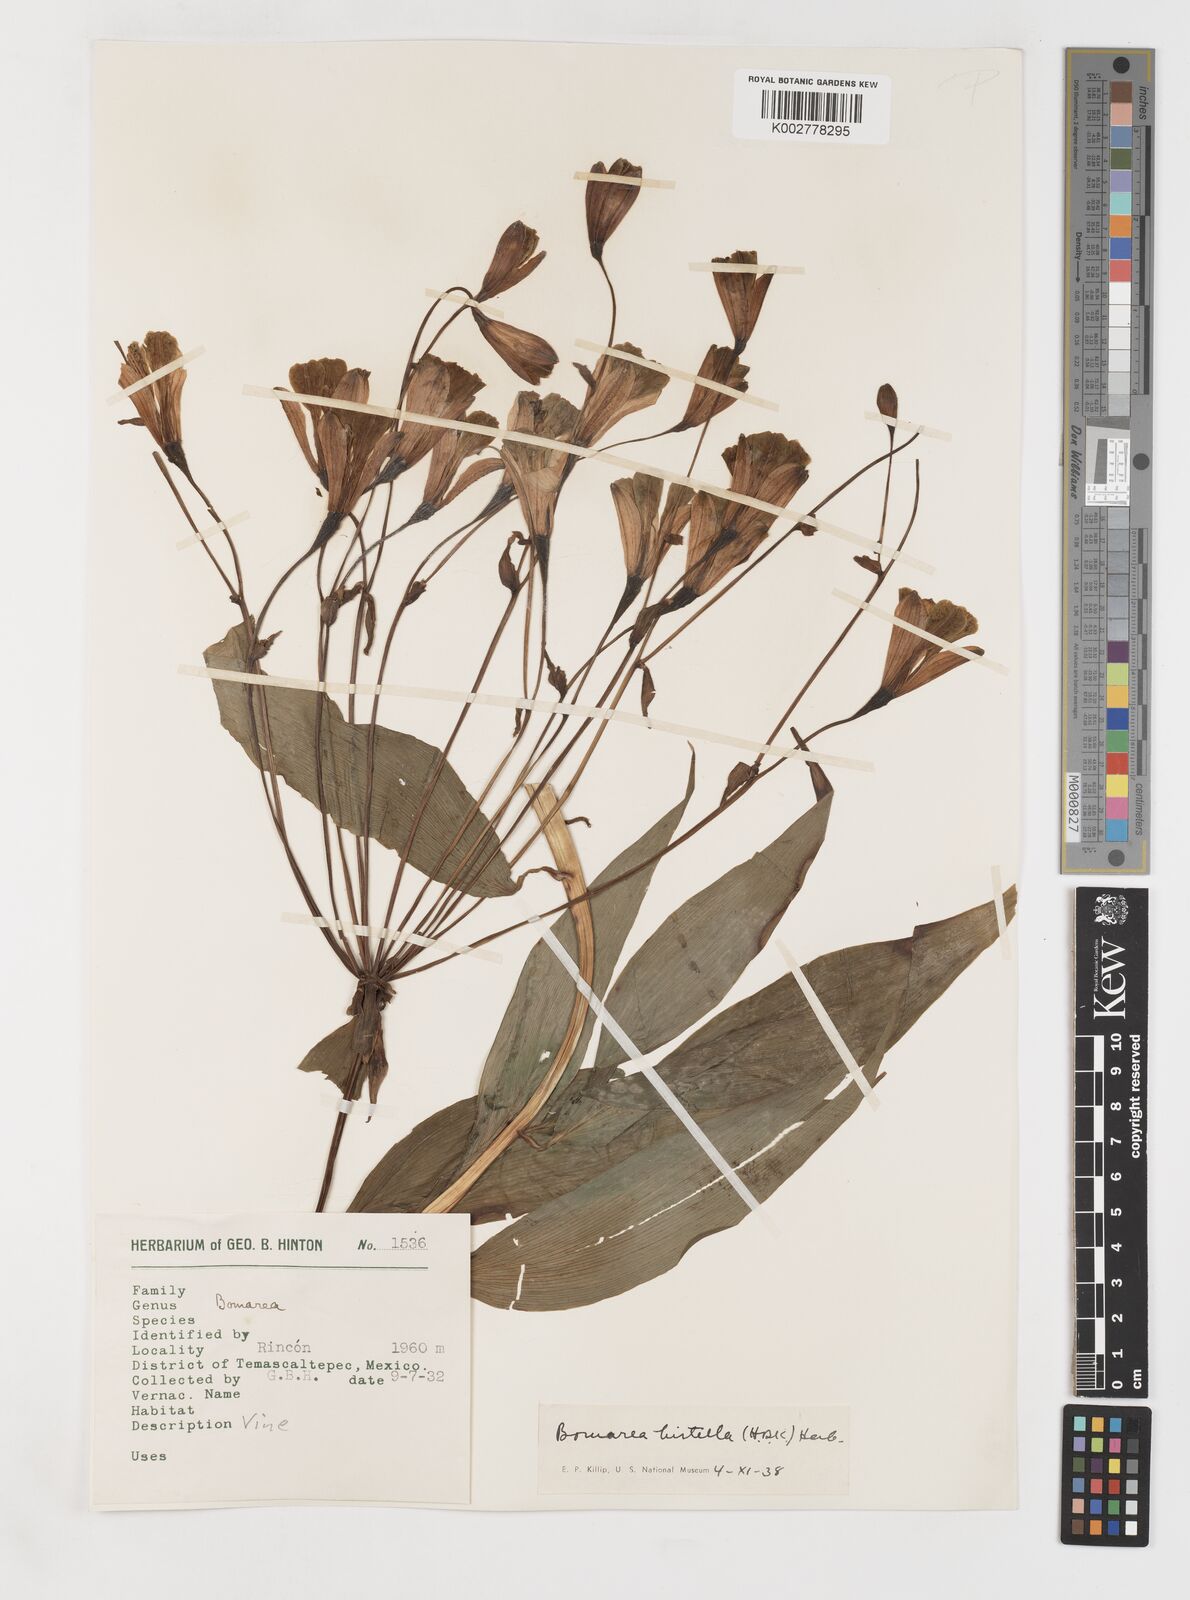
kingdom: Plantae
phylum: Tracheophyta
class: Liliopsida
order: Liliales
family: Alstroemeriaceae
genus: Bomarea
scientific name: Bomarea edulis
